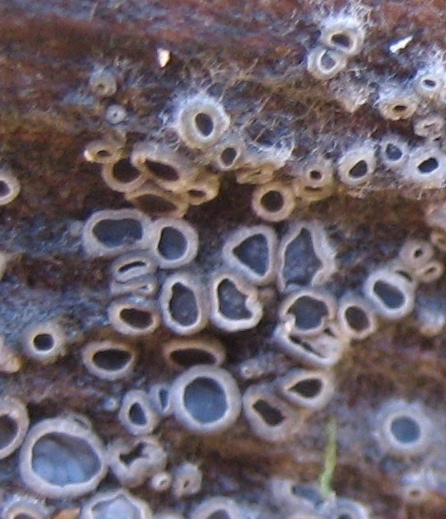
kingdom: Fungi
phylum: Ascomycota
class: Leotiomycetes
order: Helotiales
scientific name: Helotiales
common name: stilkskiveordenen
